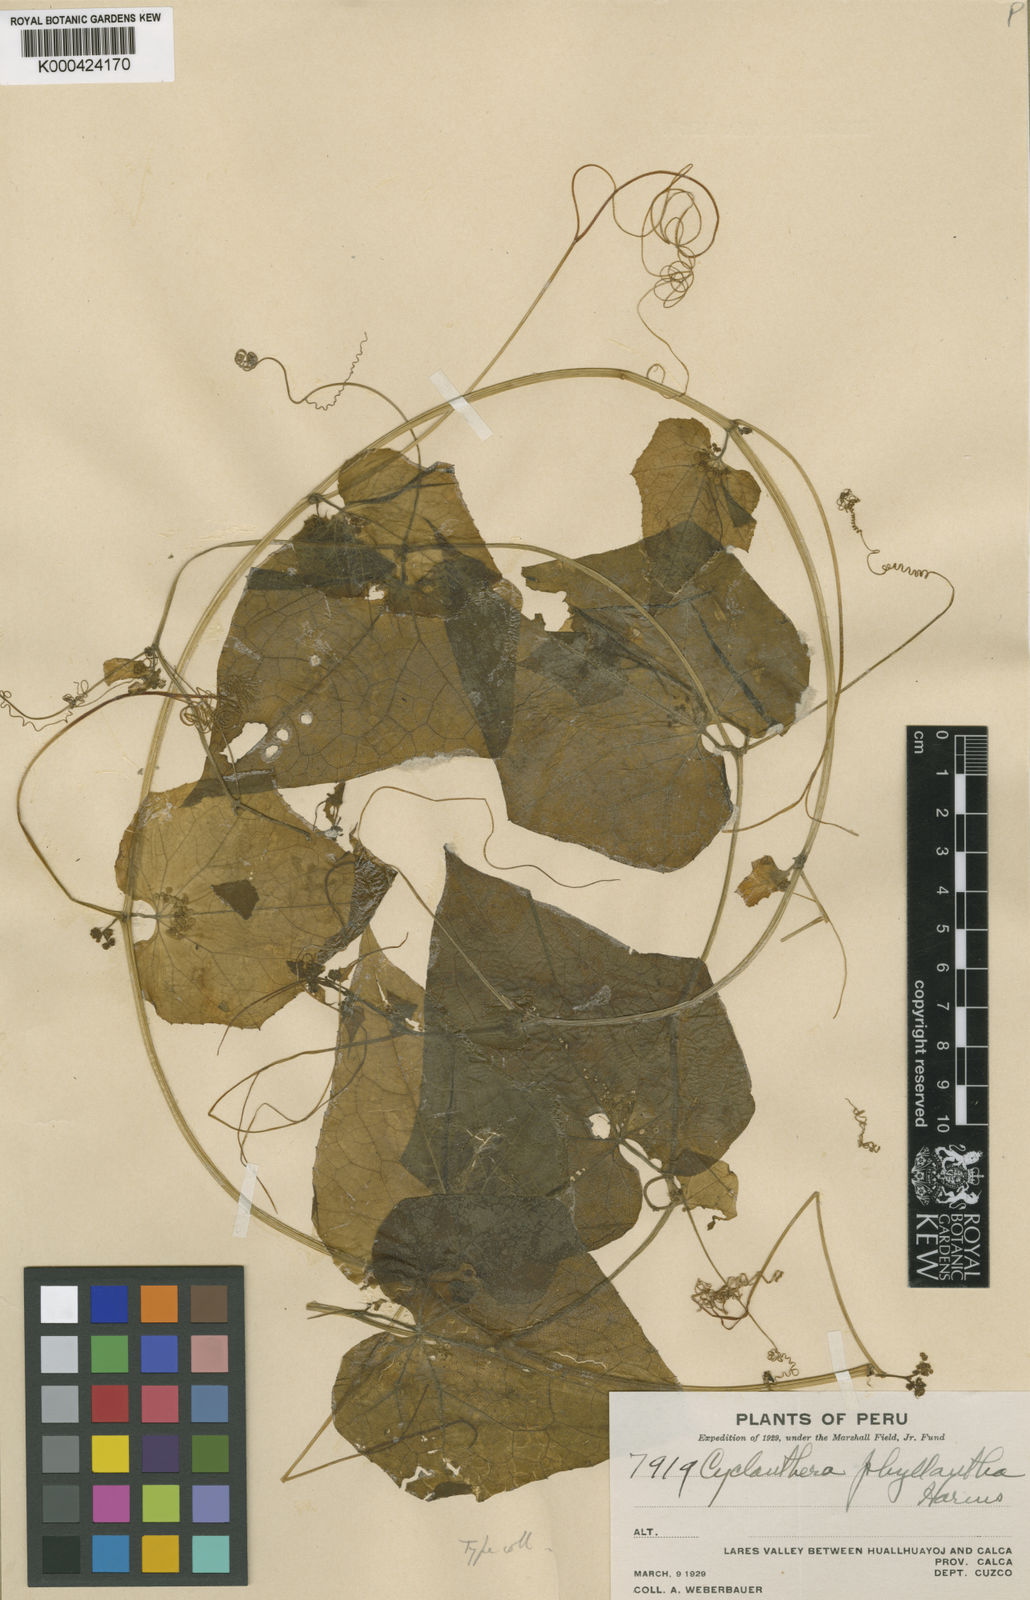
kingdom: Plantae
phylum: Tracheophyta
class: Magnoliopsida
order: Cucurbitales
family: Cucurbitaceae
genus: Cyclanthera
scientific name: Cyclanthera phyllantha
